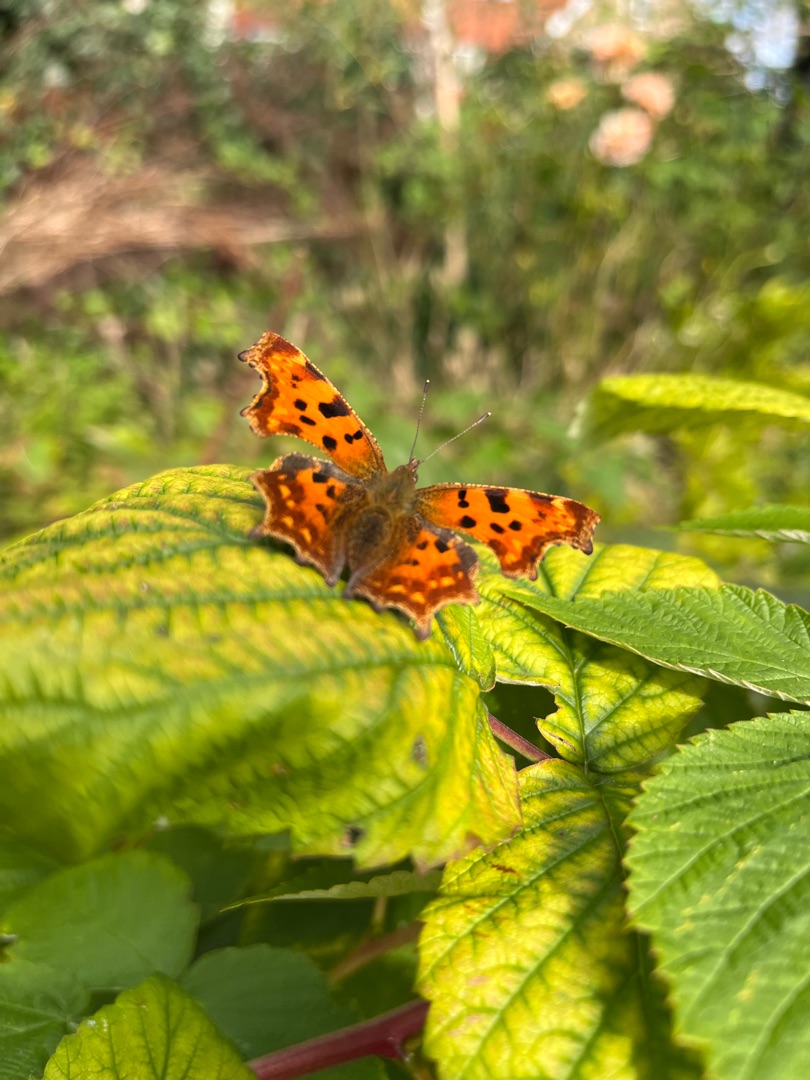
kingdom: Animalia
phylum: Arthropoda
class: Insecta
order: Lepidoptera
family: Nymphalidae
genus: Polygonia
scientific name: Polygonia c-album
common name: Det hvide C
